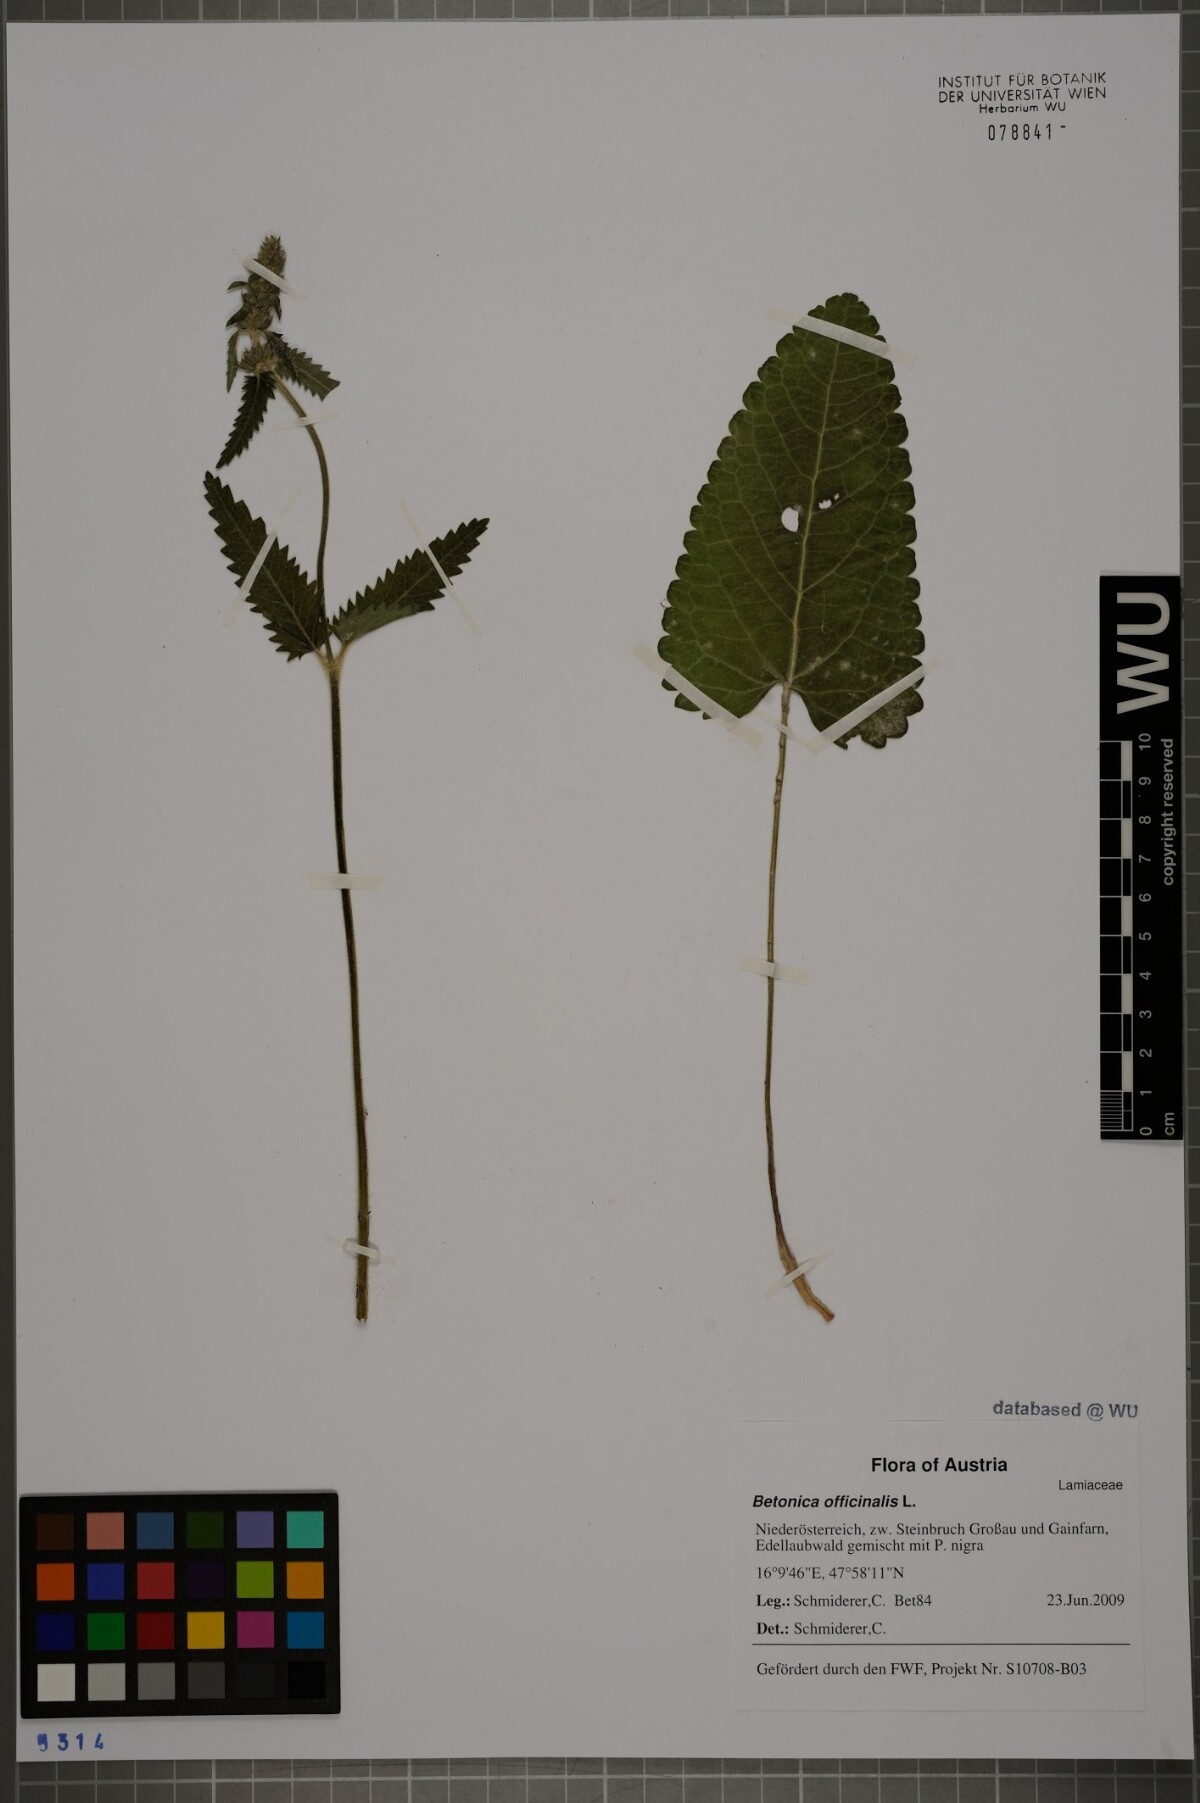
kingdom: Plantae
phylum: Tracheophyta
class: Magnoliopsida
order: Lamiales
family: Lamiaceae
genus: Betonica
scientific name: Betonica officinalis
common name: Bishop's-wort
